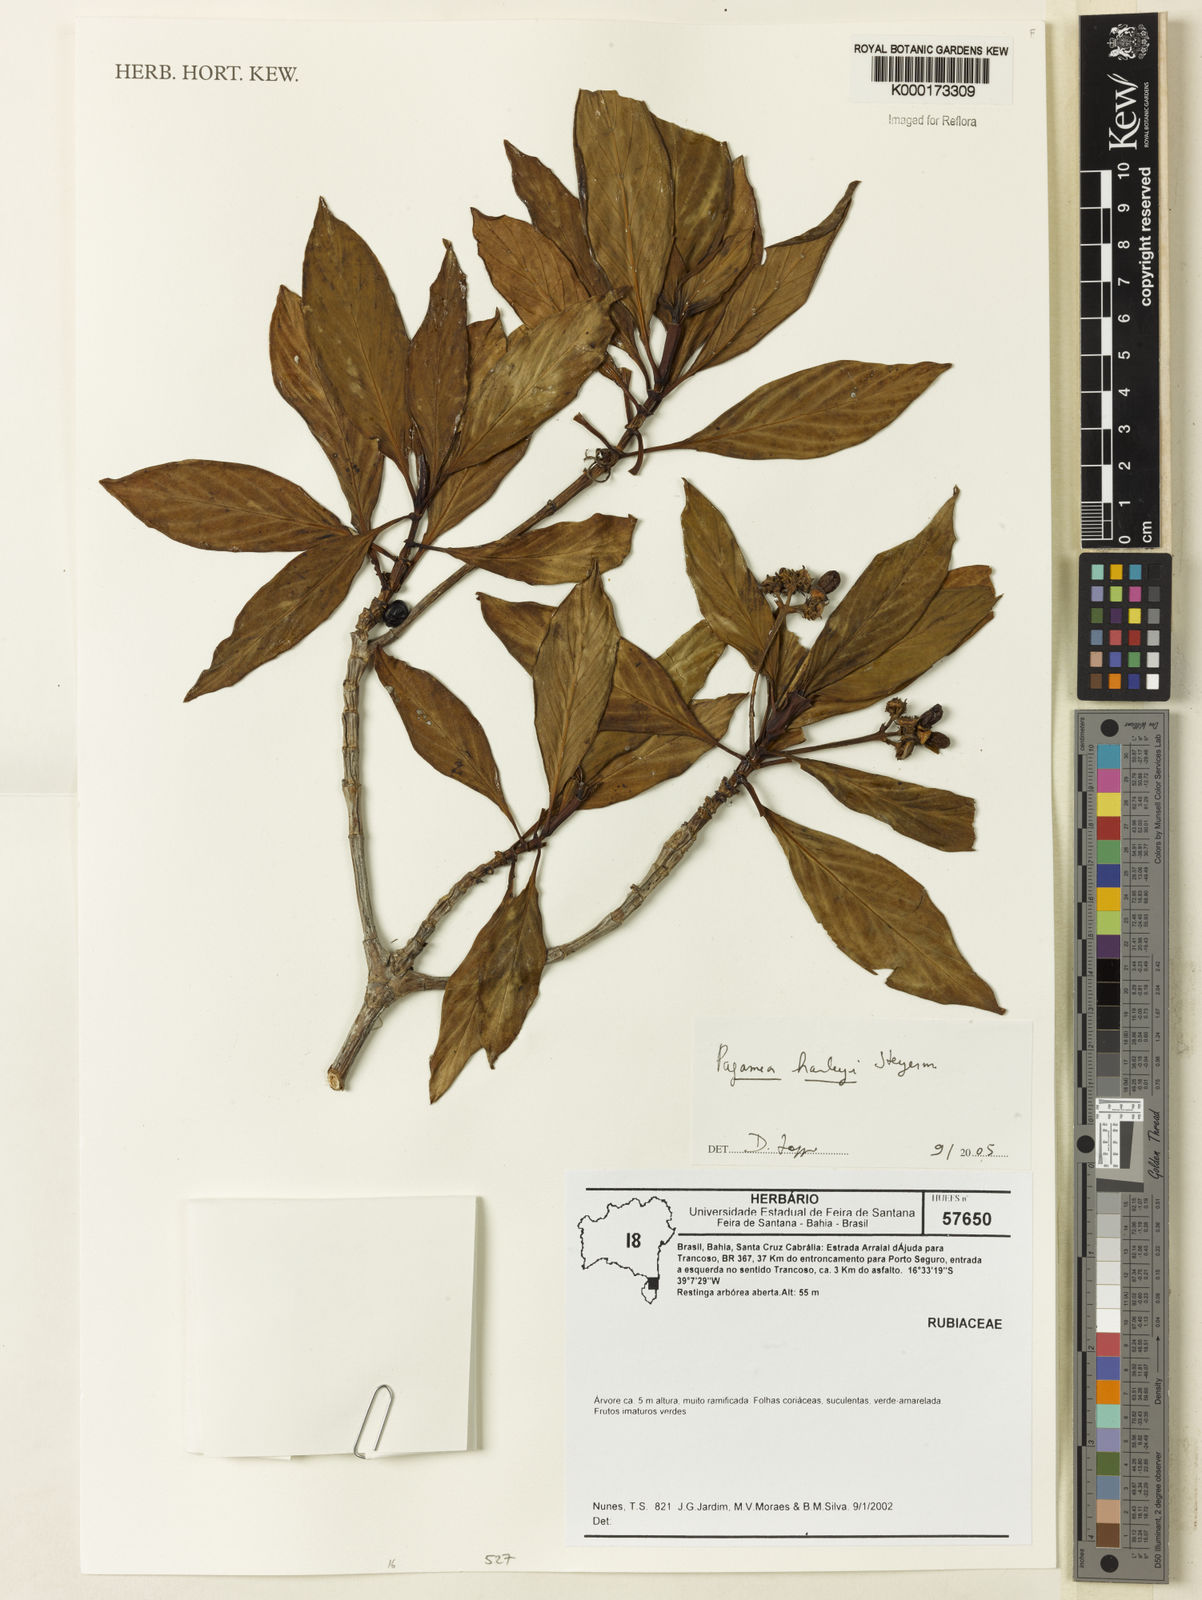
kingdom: Plantae
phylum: Tracheophyta
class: Magnoliopsida
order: Gentianales
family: Rubiaceae
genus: Pagamea
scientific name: Pagamea harleyi
